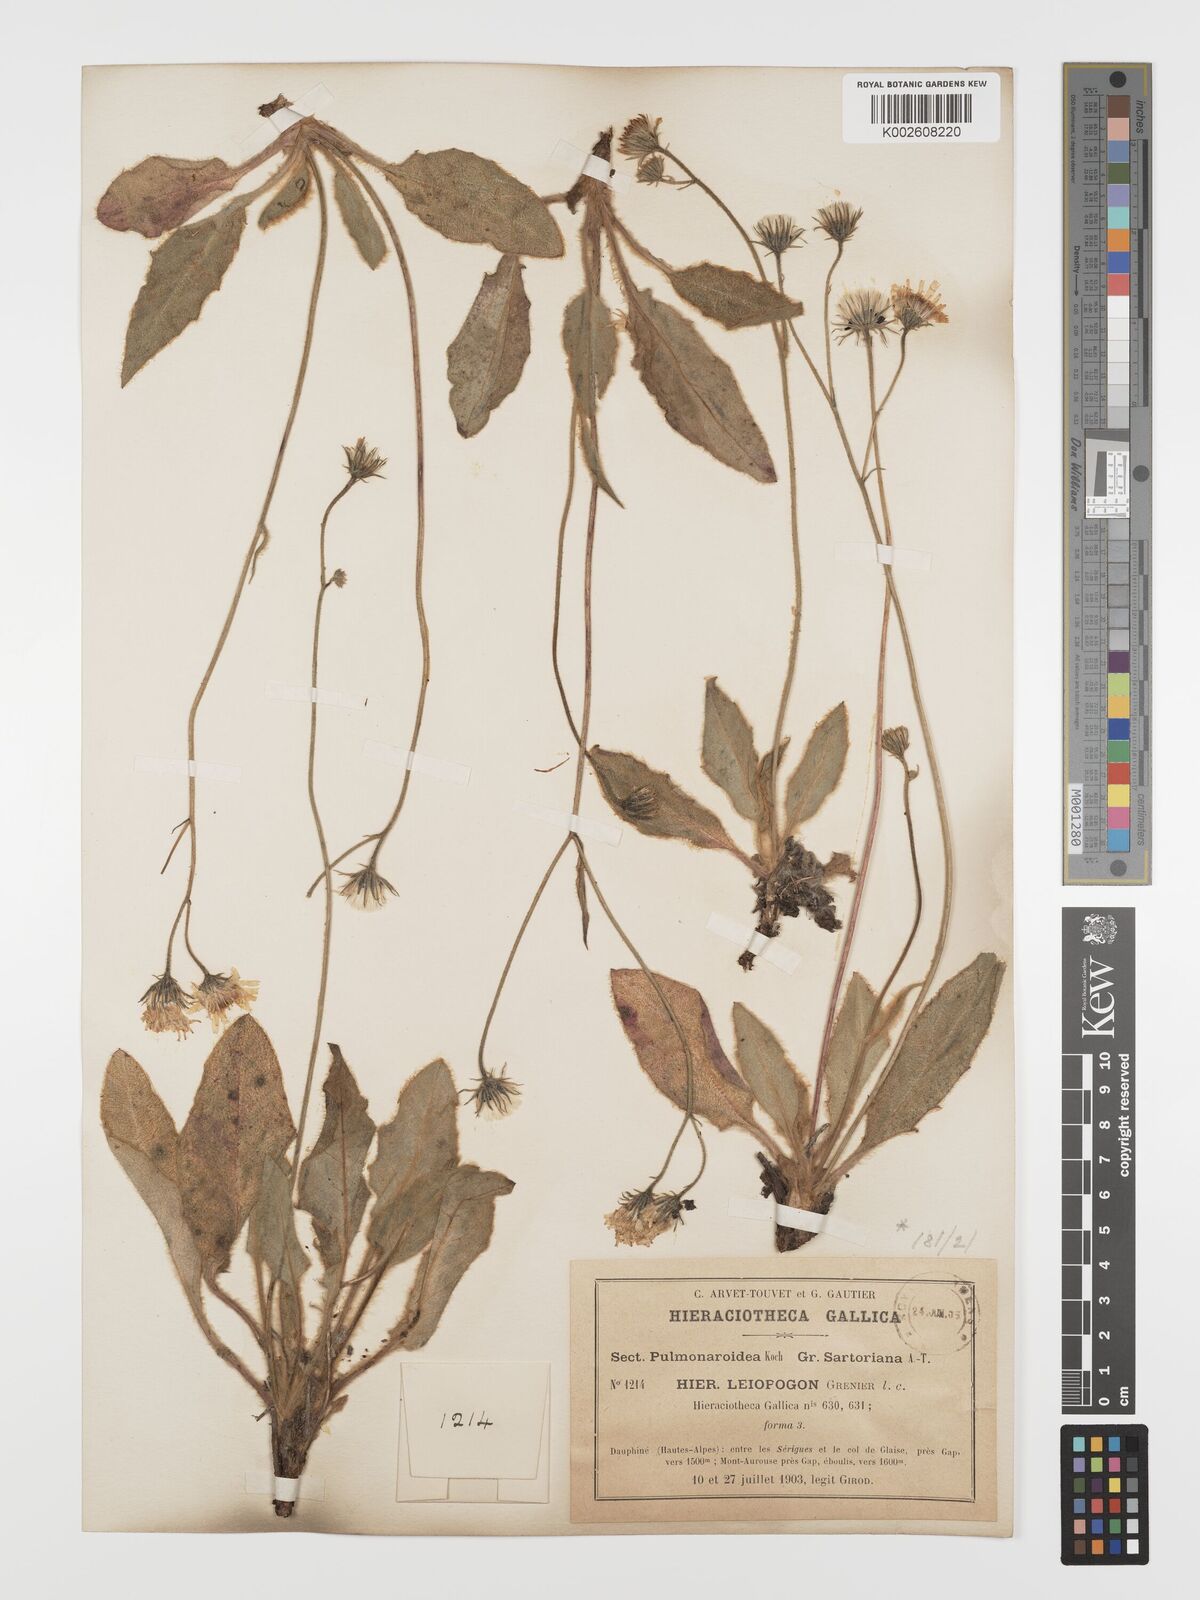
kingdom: Plantae
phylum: Tracheophyta
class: Magnoliopsida
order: Asterales
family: Asteraceae
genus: Hieracium
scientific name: Hieracium leiopogon
